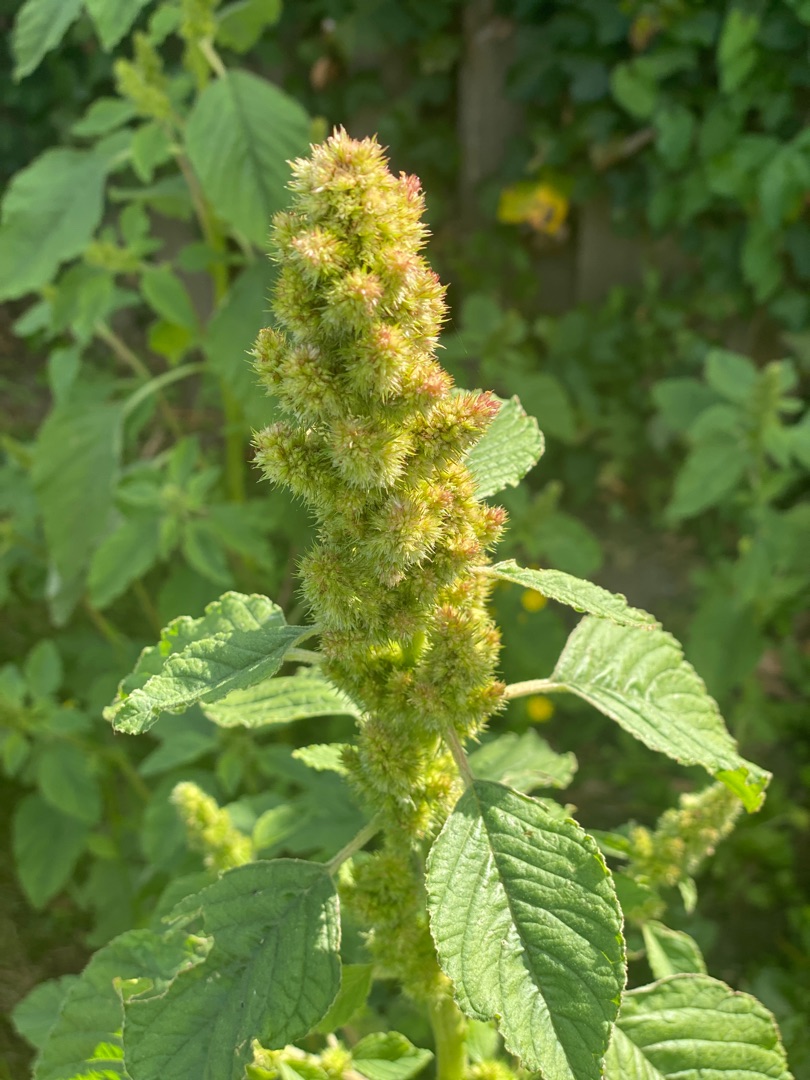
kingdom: Plantae
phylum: Tracheophyta
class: Magnoliopsida
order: Caryophyllales
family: Amaranthaceae
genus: Amaranthus
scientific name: Amaranthus
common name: Amarantslægten
